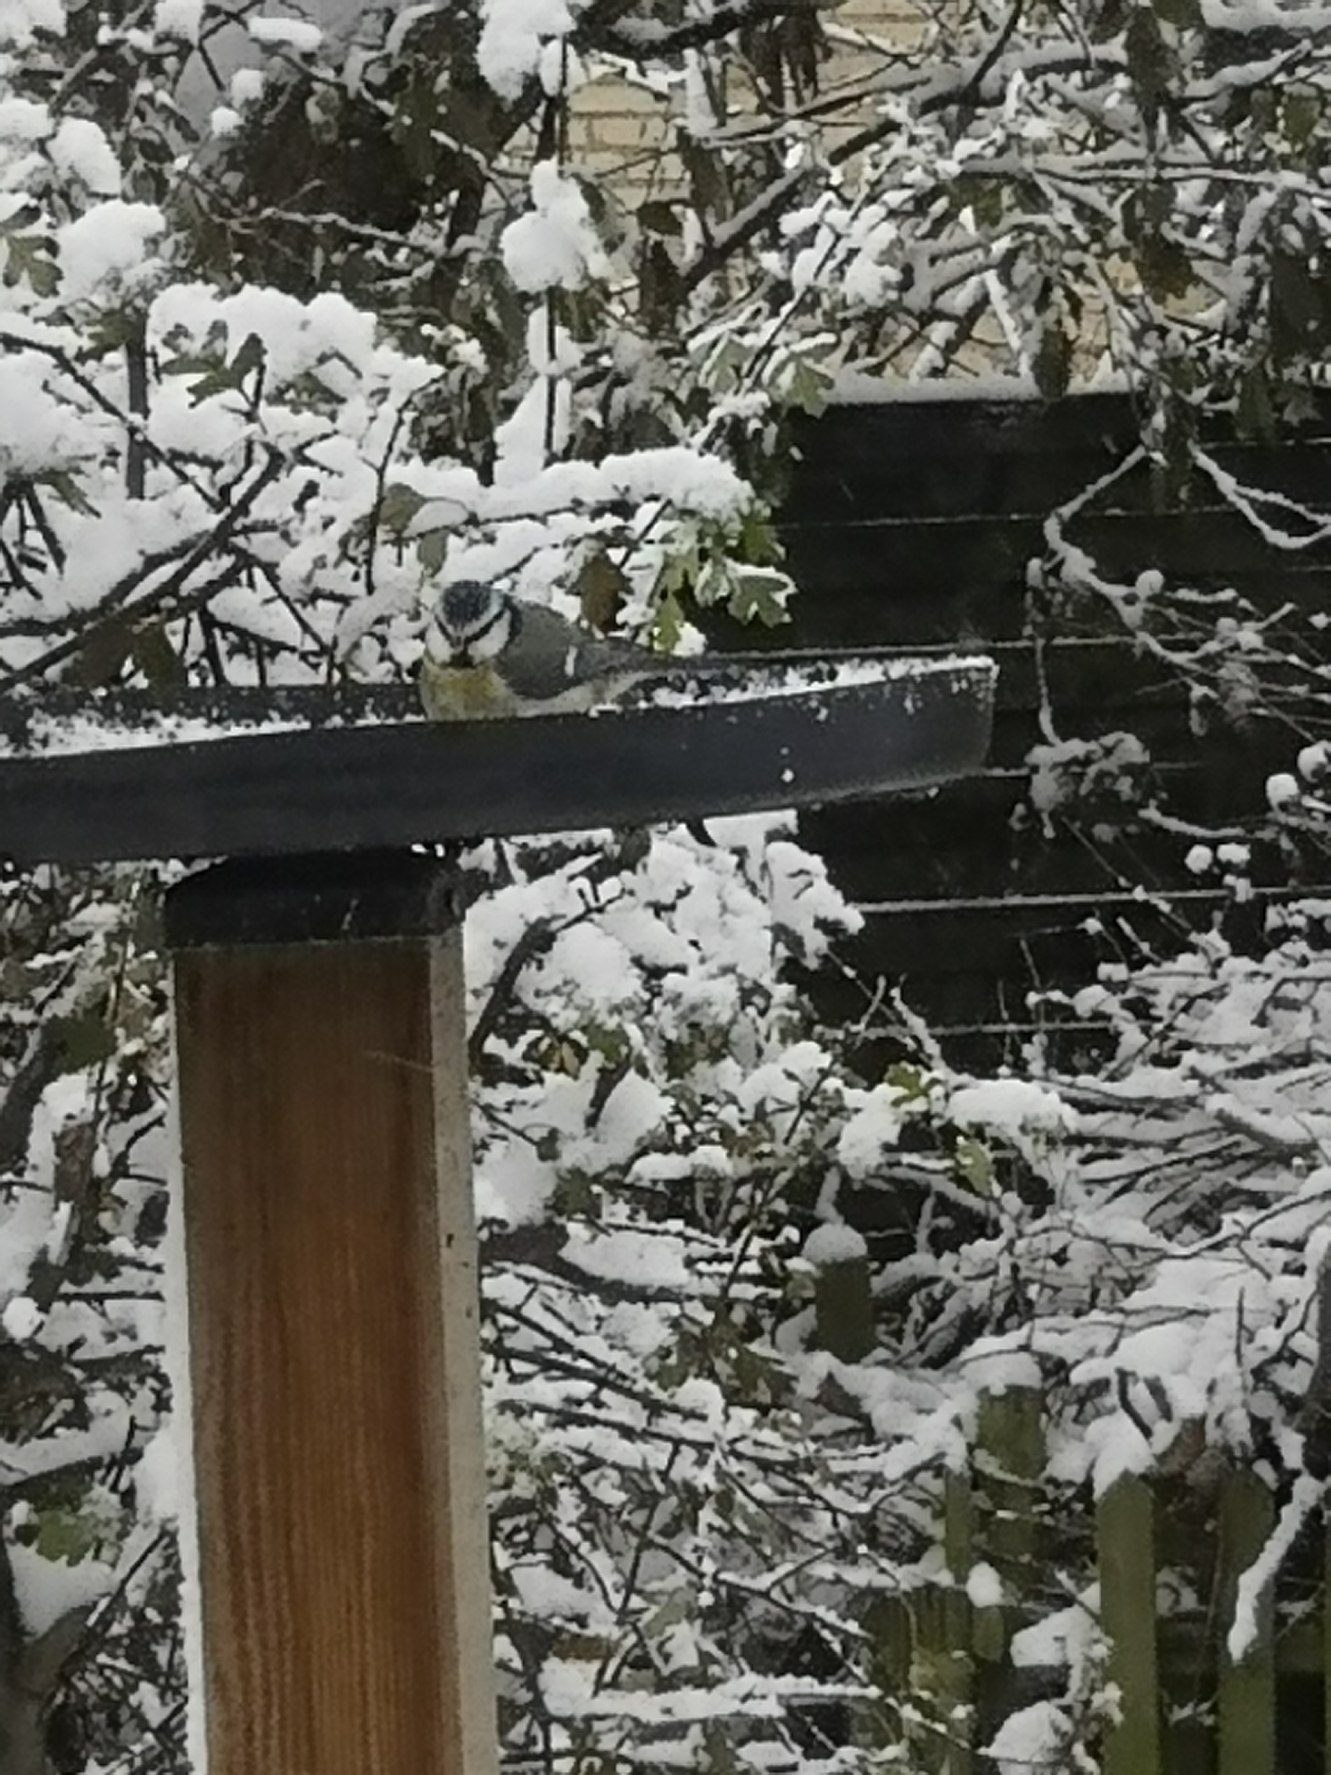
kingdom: Animalia
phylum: Chordata
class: Aves
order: Passeriformes
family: Paridae
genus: Cyanistes
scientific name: Cyanistes caeruleus
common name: Blåmejse
